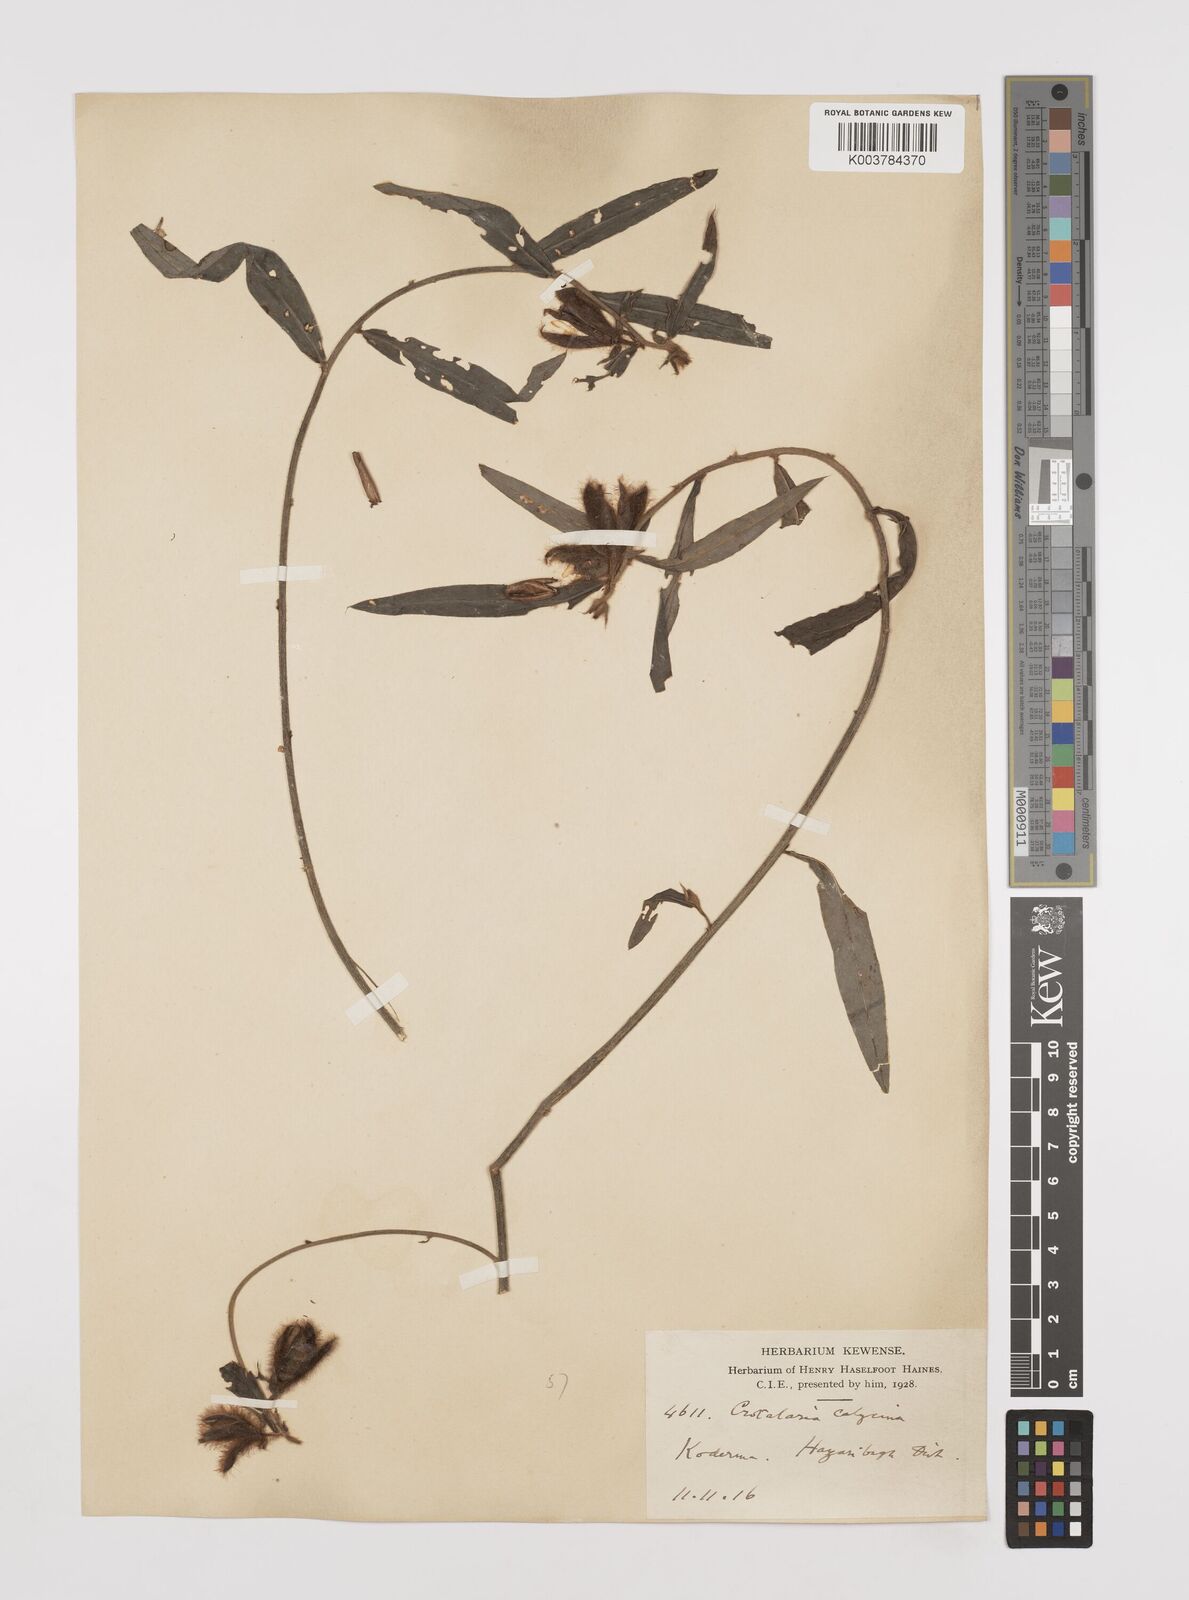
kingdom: Plantae
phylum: Tracheophyta
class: Magnoliopsida
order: Fabales
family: Fabaceae
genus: Crotalaria
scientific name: Crotalaria calycina
